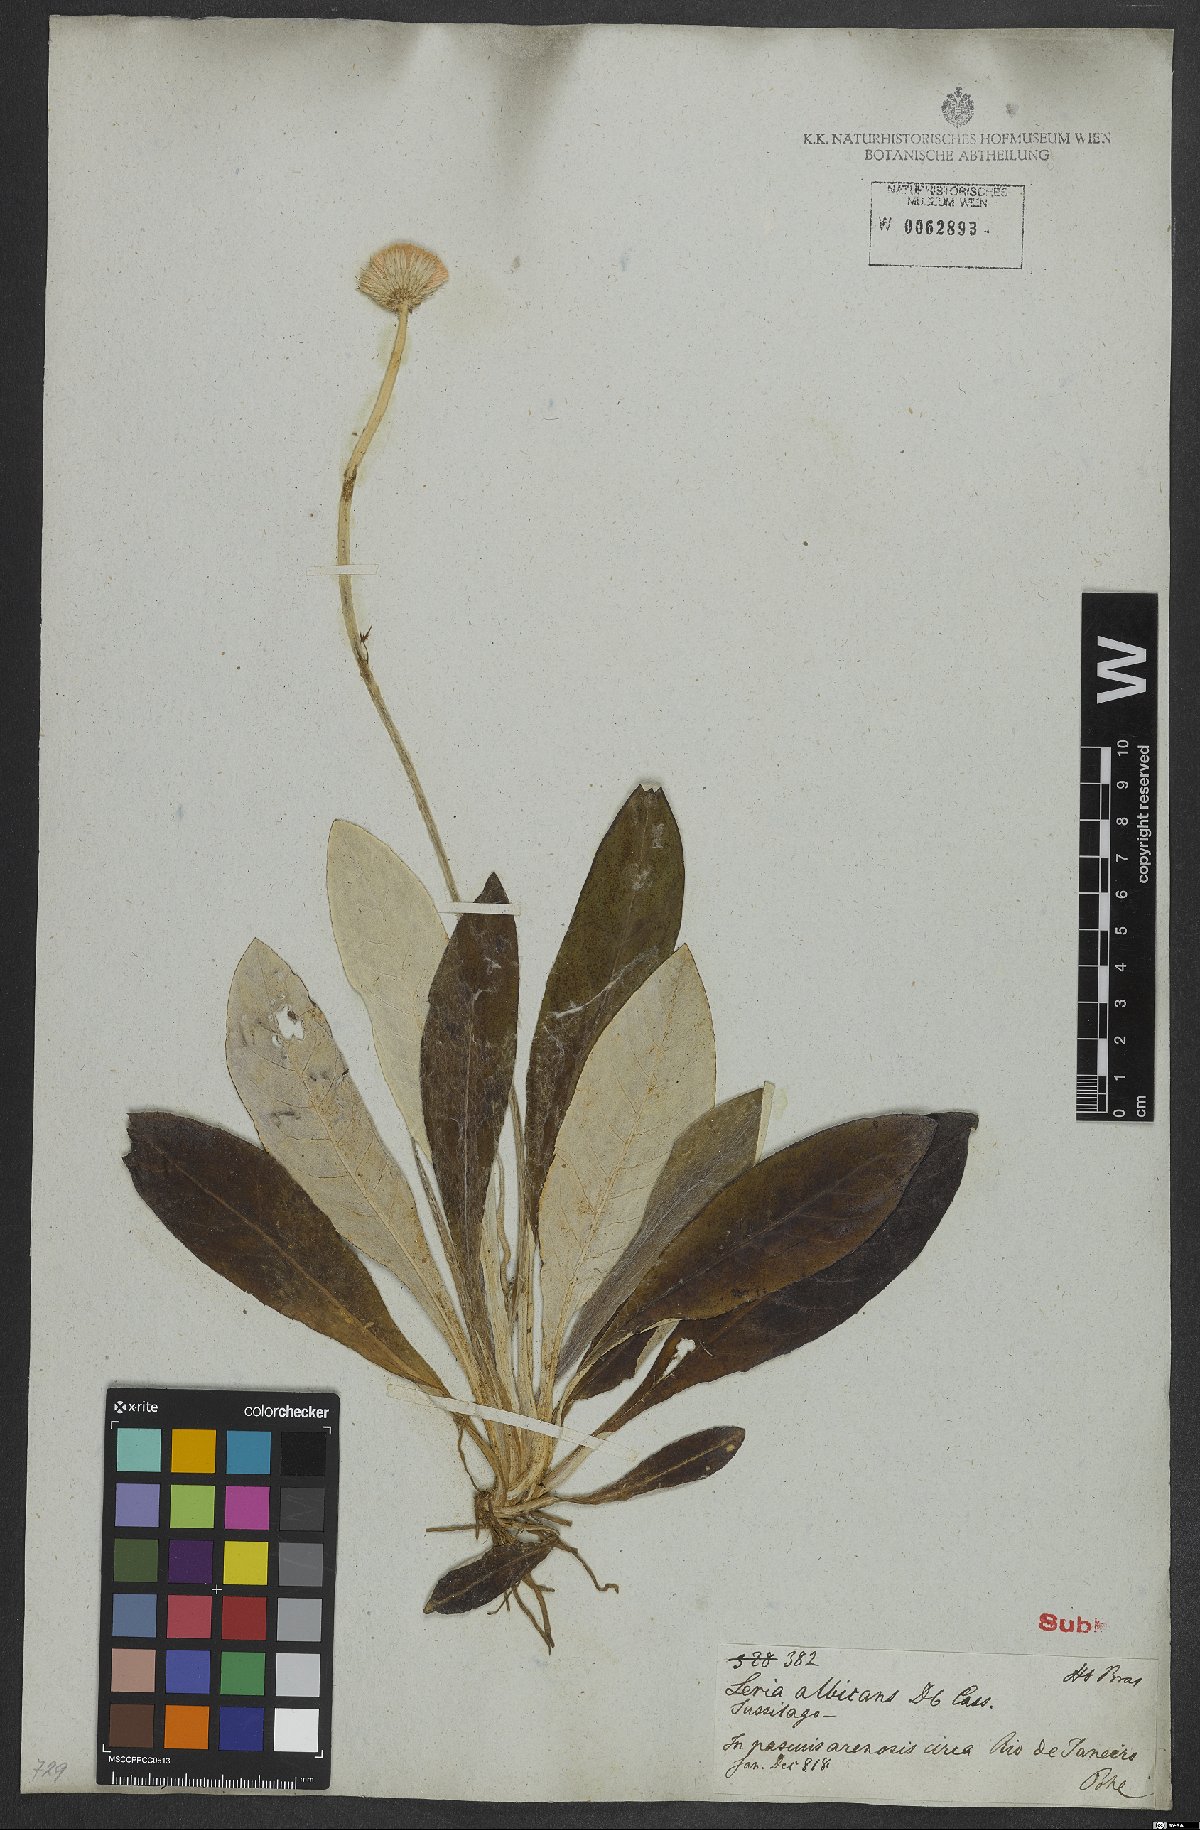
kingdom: Plantae
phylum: Tracheophyta
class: Magnoliopsida
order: Asterales
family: Asteraceae
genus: Chaptalia
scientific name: Chaptalia albicans
